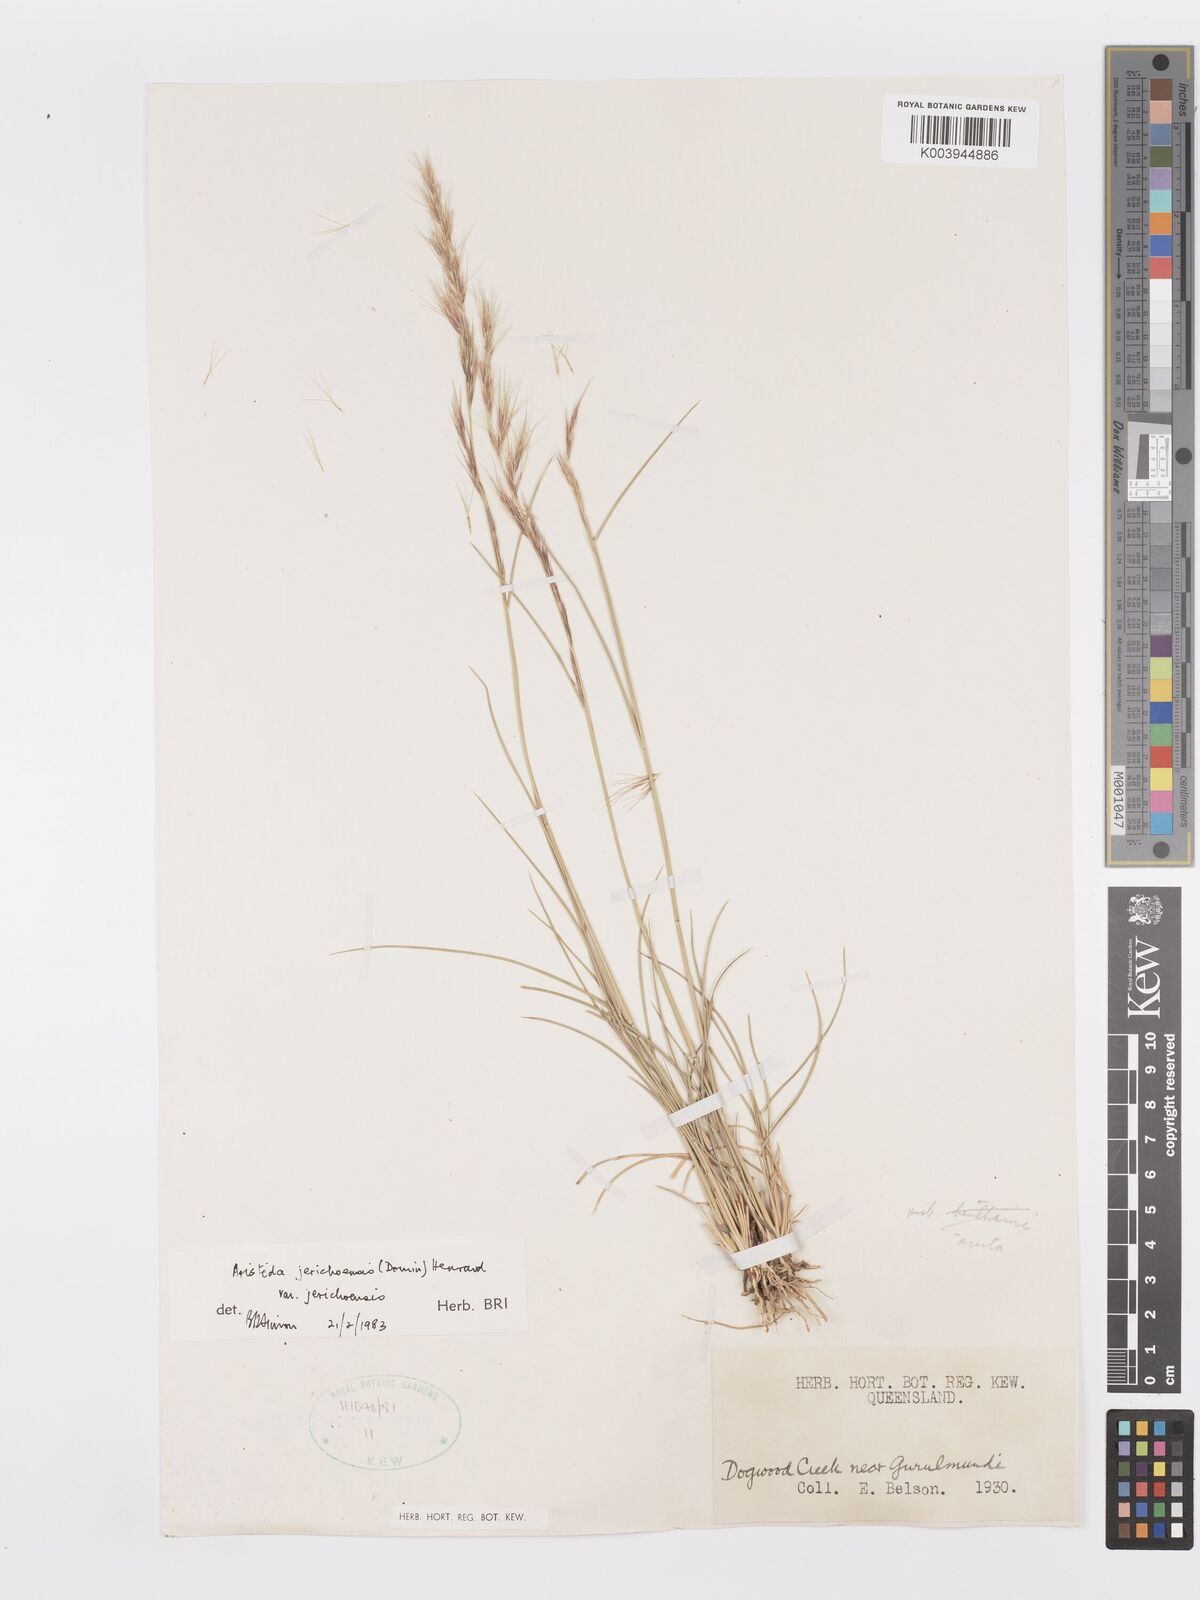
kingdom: Plantae
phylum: Tracheophyta
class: Liliopsida
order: Poales
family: Poaceae
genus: Aristida
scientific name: Aristida jerichoensis
